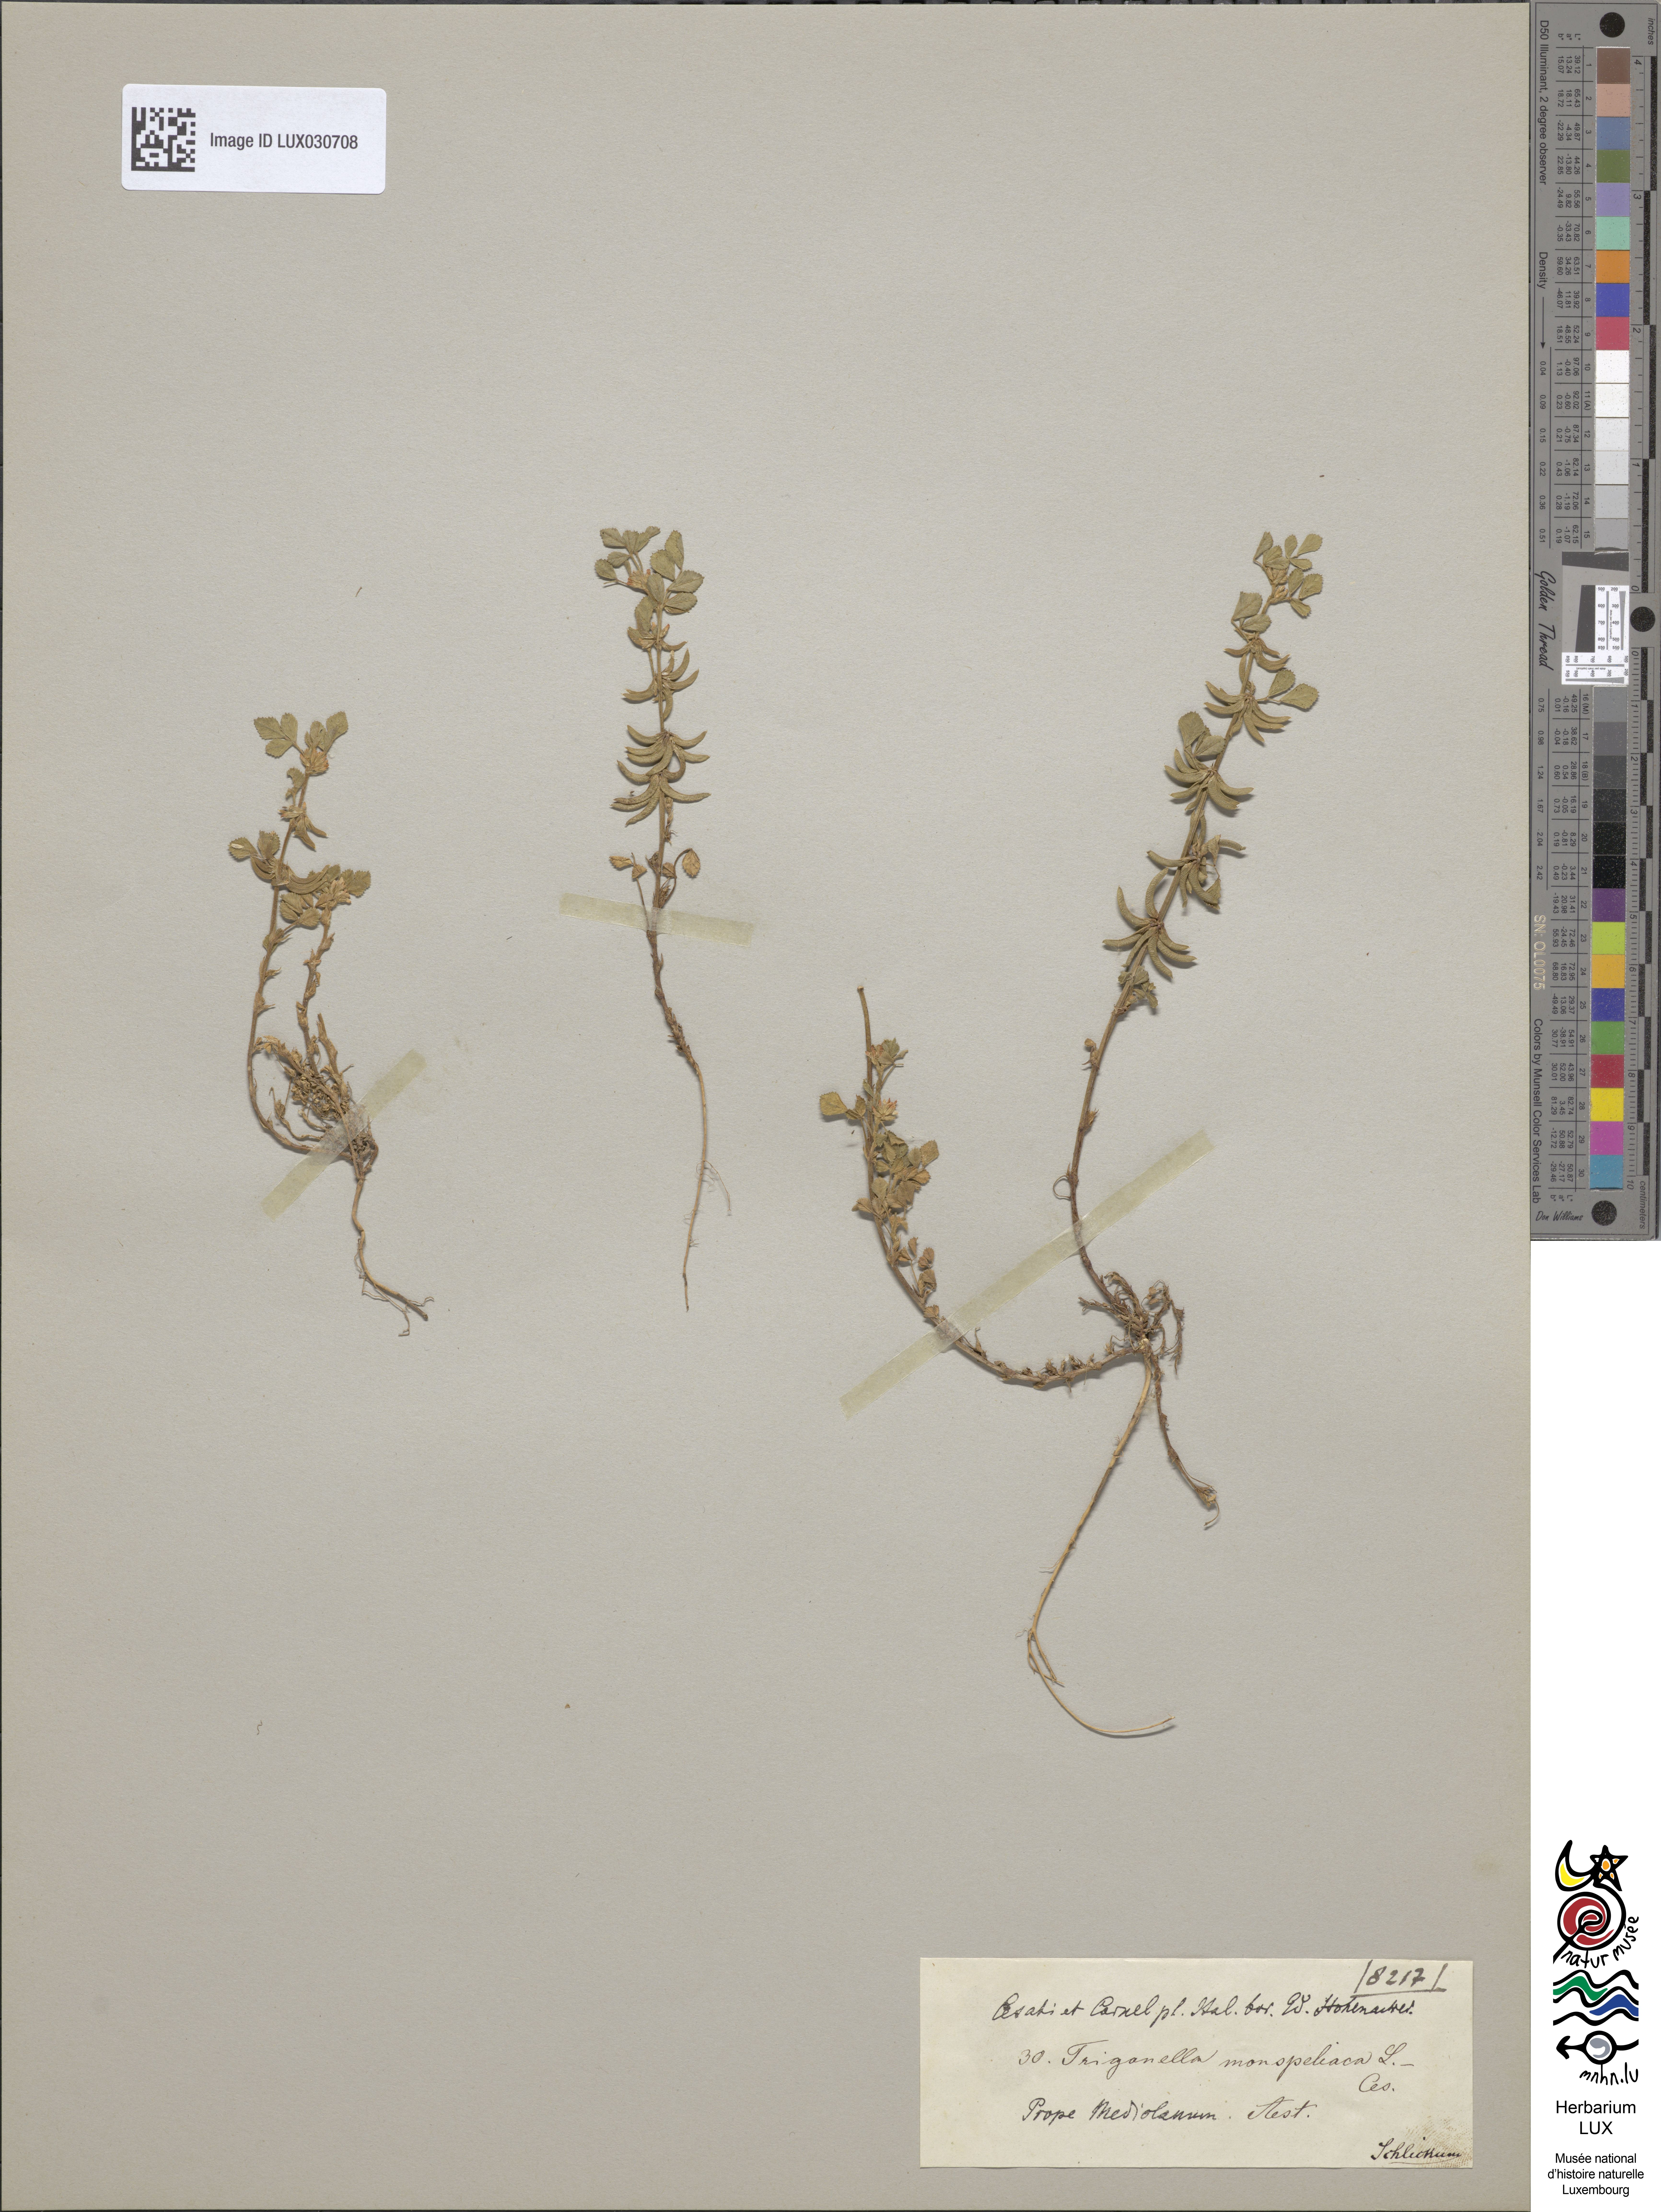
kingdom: Plantae
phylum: Tracheophyta
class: Magnoliopsida
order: Fabales
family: Fabaceae
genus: Medicago
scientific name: Medicago monspeliaca
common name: Hairy medick
